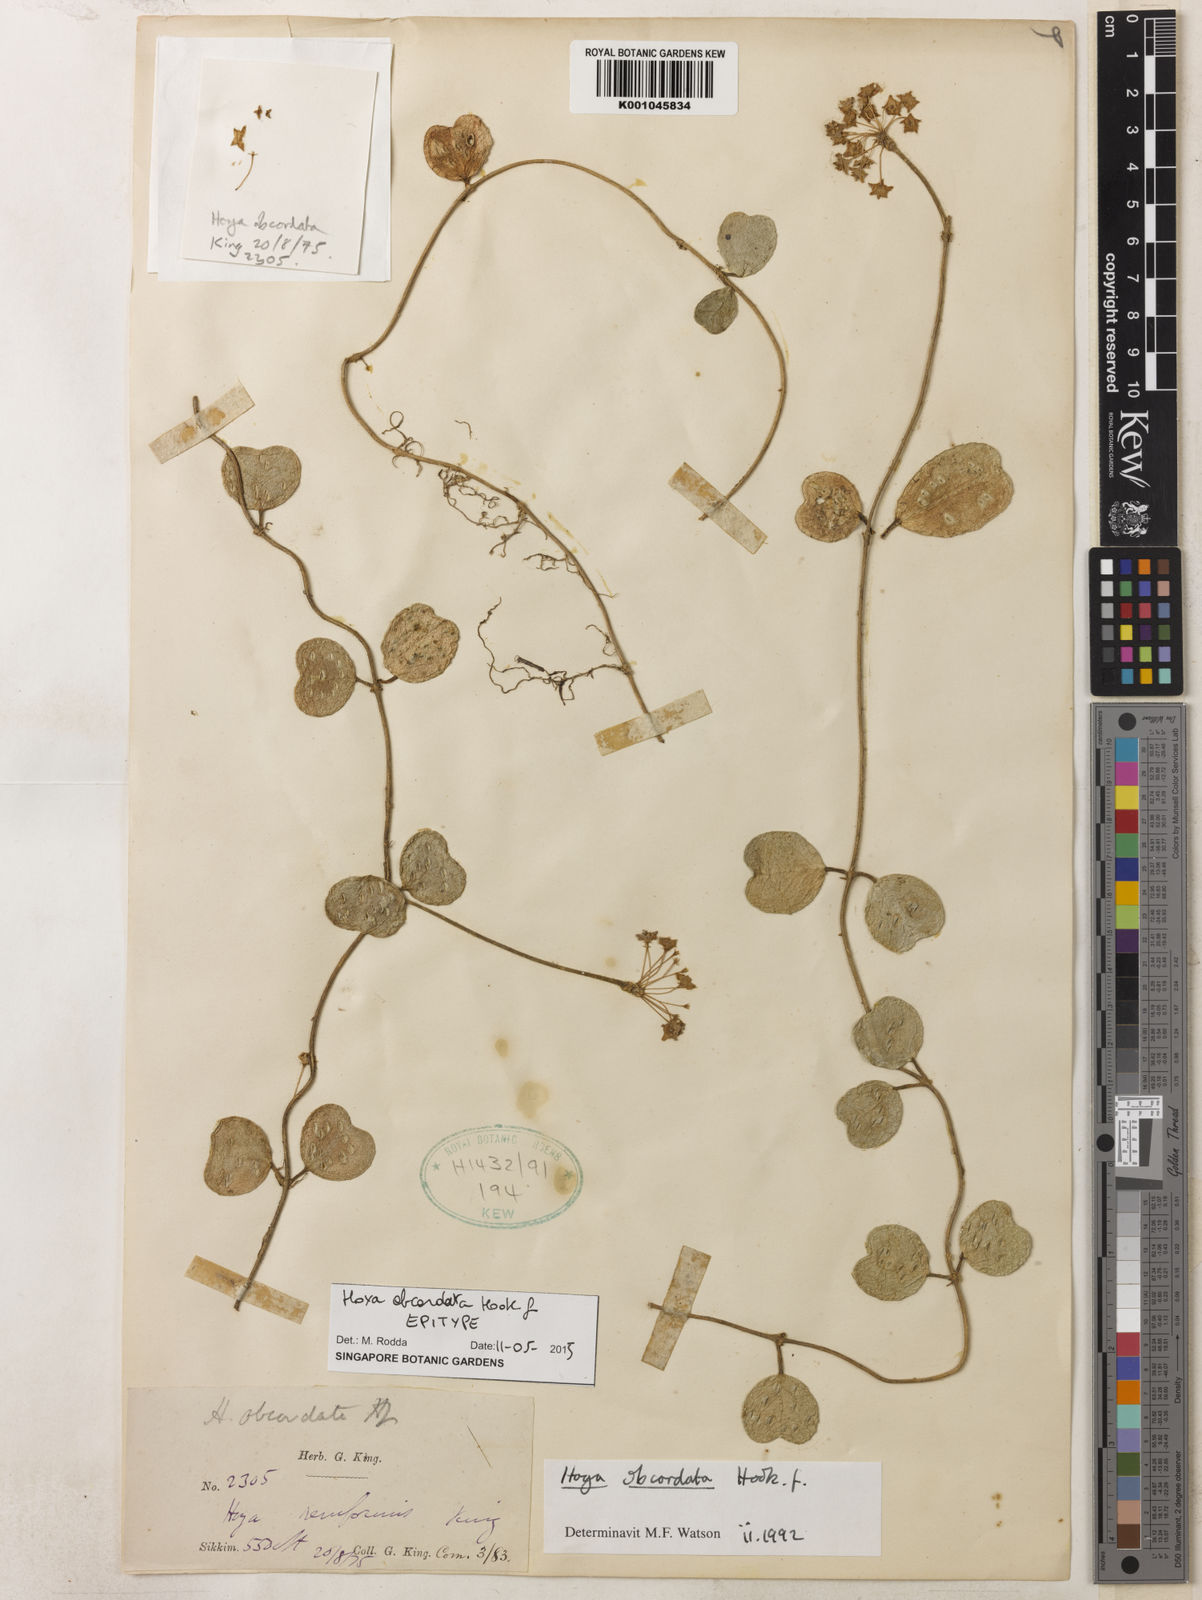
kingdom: Plantae
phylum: Tracheophyta
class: Magnoliopsida
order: Gentianales
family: Apocynaceae
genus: Hoya
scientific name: Hoya obcordata
